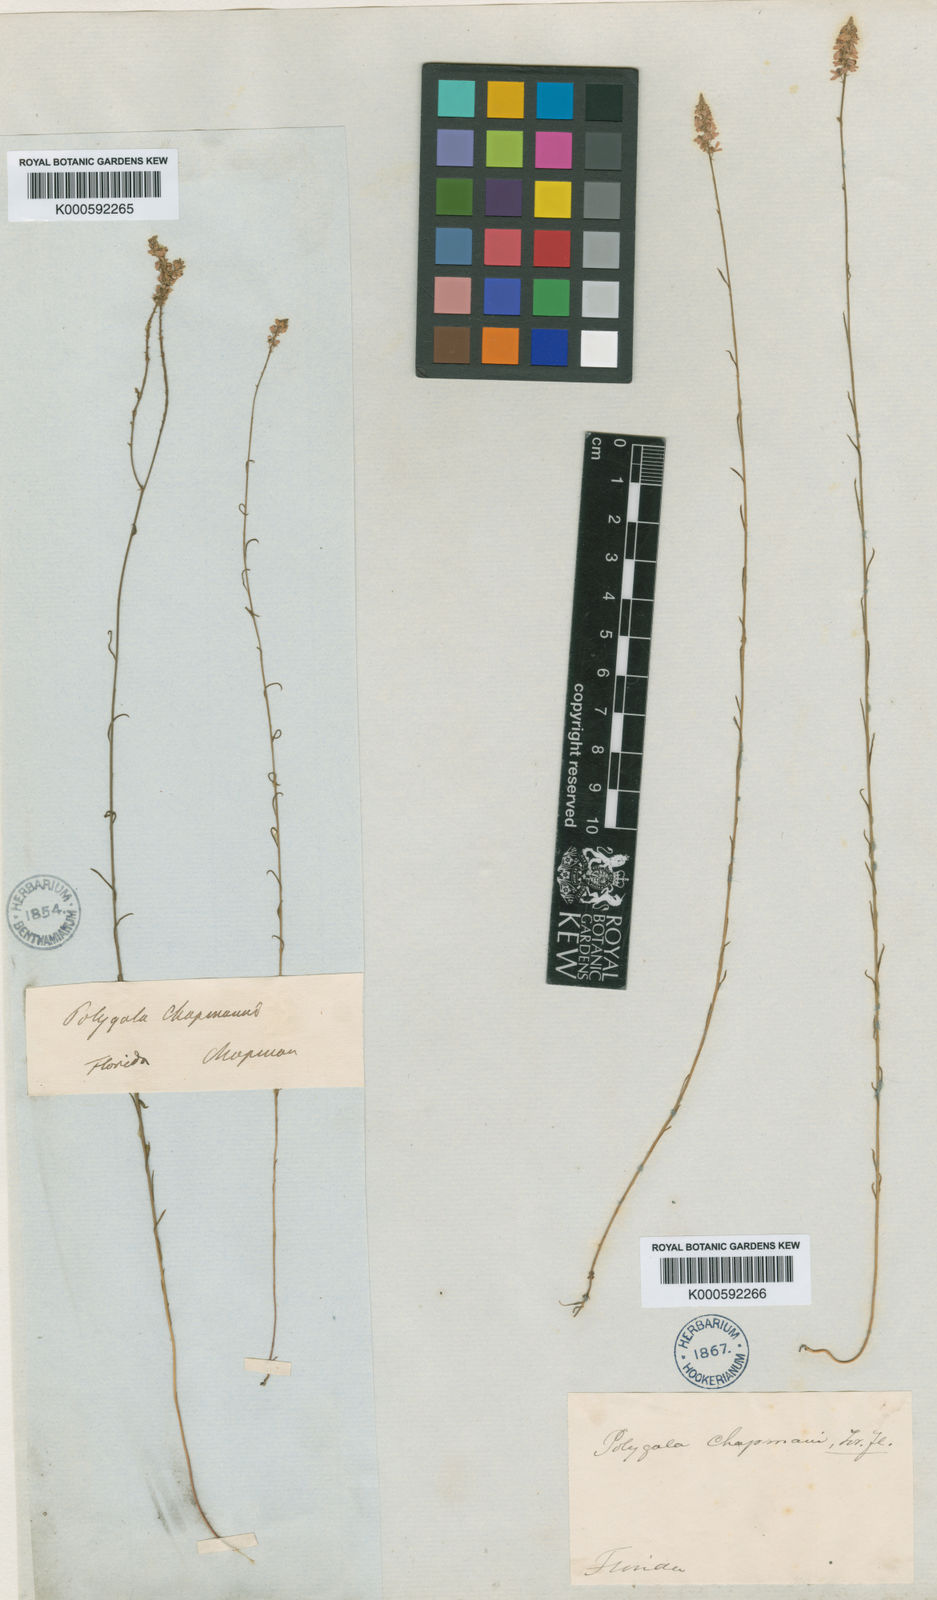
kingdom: Plantae
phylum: Tracheophyta
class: Magnoliopsida
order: Fabales
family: Polygalaceae
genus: Polygala
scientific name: Polygala chapmanii
